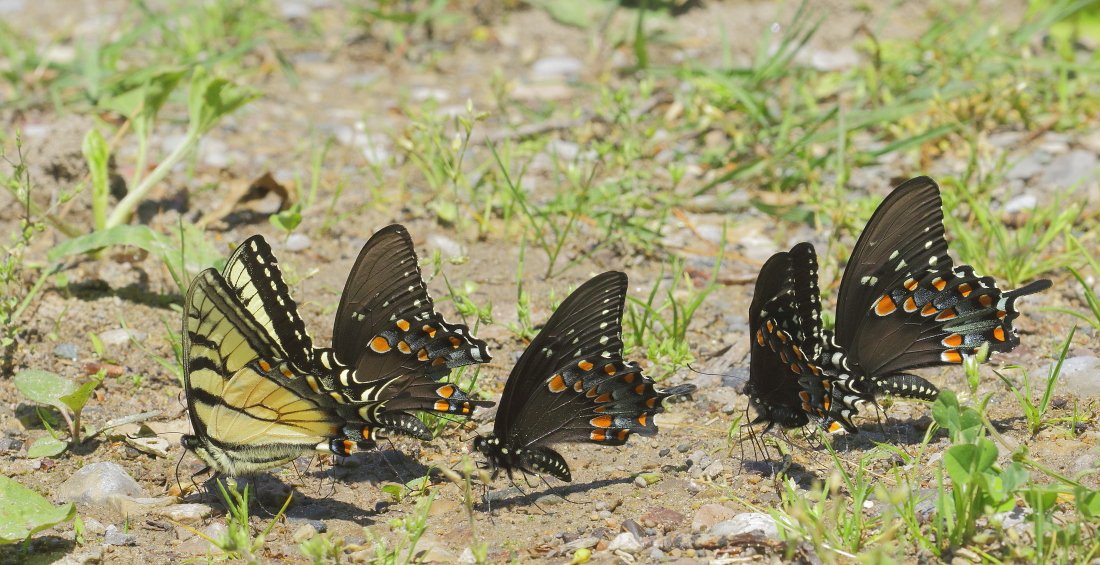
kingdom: Animalia
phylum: Arthropoda
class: Insecta
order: Lepidoptera
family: Papilionidae
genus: Pterourus
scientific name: Pterourus glaucus
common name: Eastern Tiger Swallowtail
